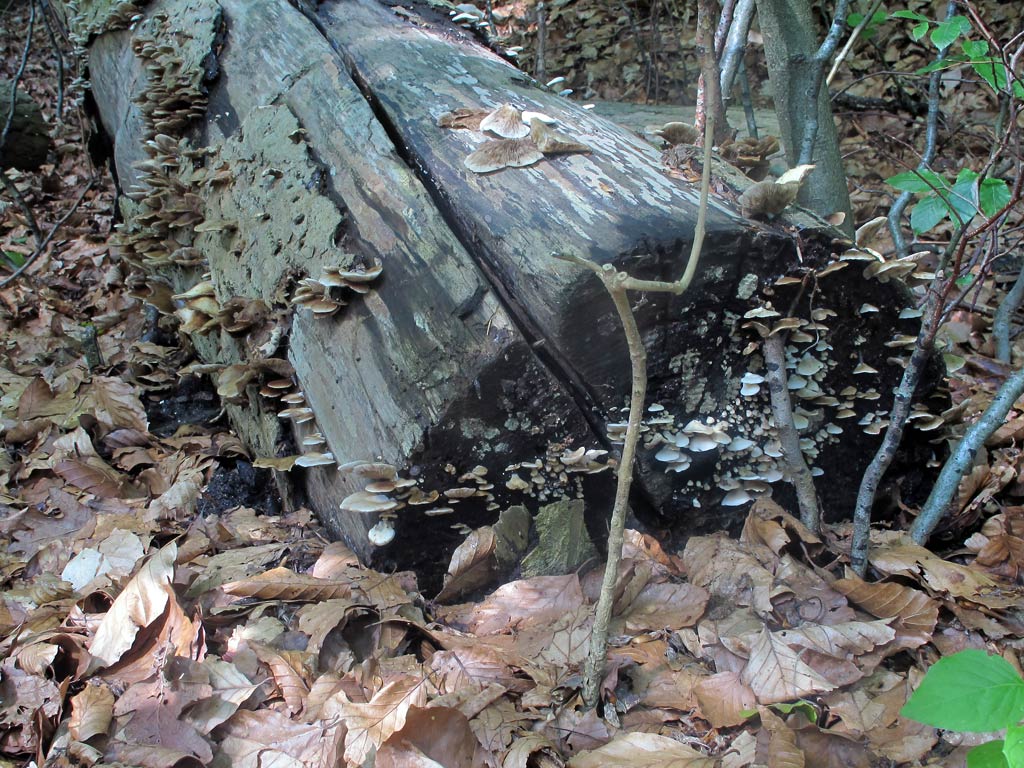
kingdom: Fungi
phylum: Basidiomycota
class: Agaricomycetes
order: Agaricales
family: Crepidotaceae
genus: Crepidotus
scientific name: Crepidotus mollis
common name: blød muslingesvamp
